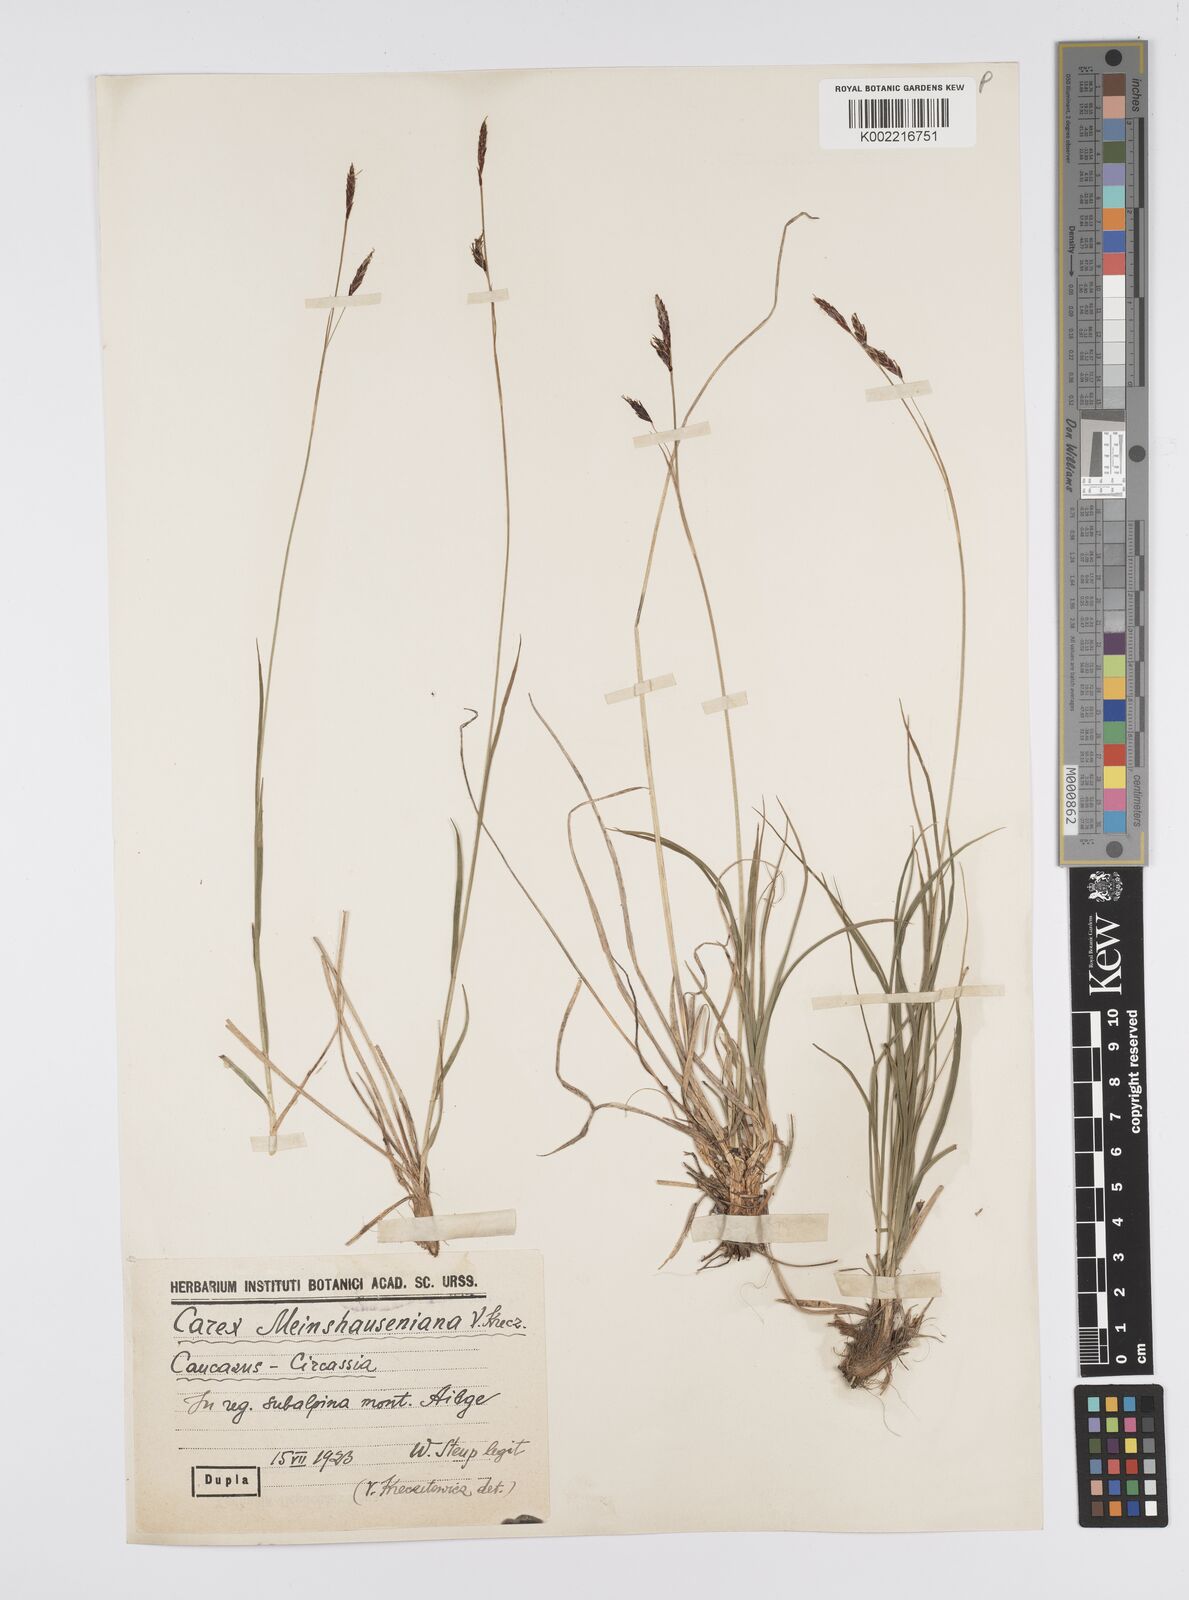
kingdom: Plantae
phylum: Tracheophyta
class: Liliopsida
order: Poales
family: Cyperaceae
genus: Carex
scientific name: Carex tristis
